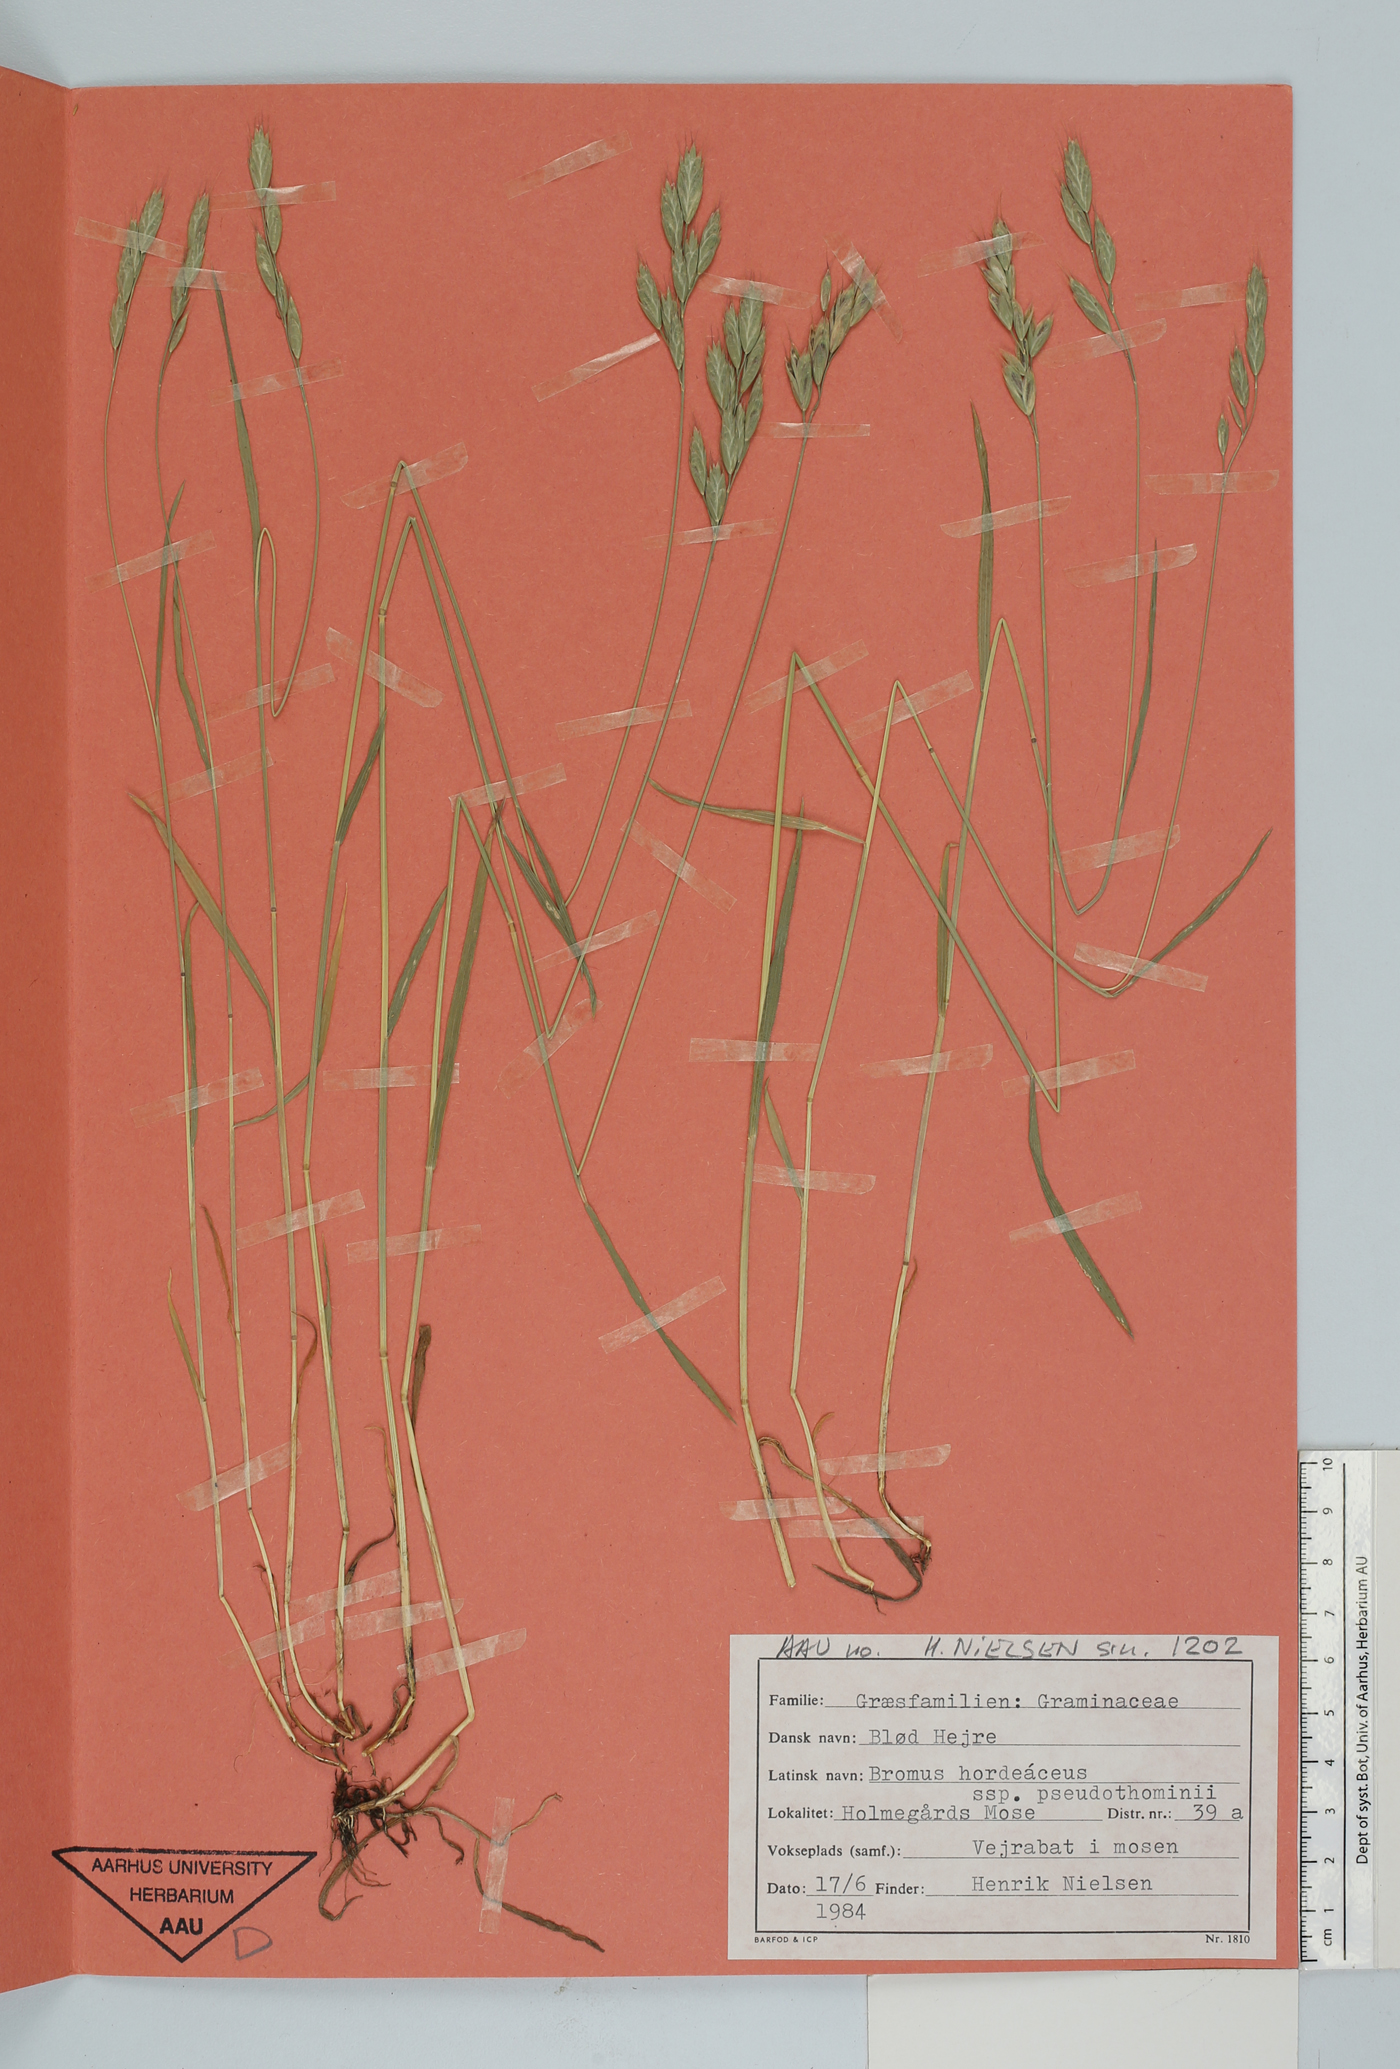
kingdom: Plantae
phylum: Tracheophyta
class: Liliopsida
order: Poales
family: Poaceae
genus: Bromus
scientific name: Bromus hordeaceus
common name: Soft brome
